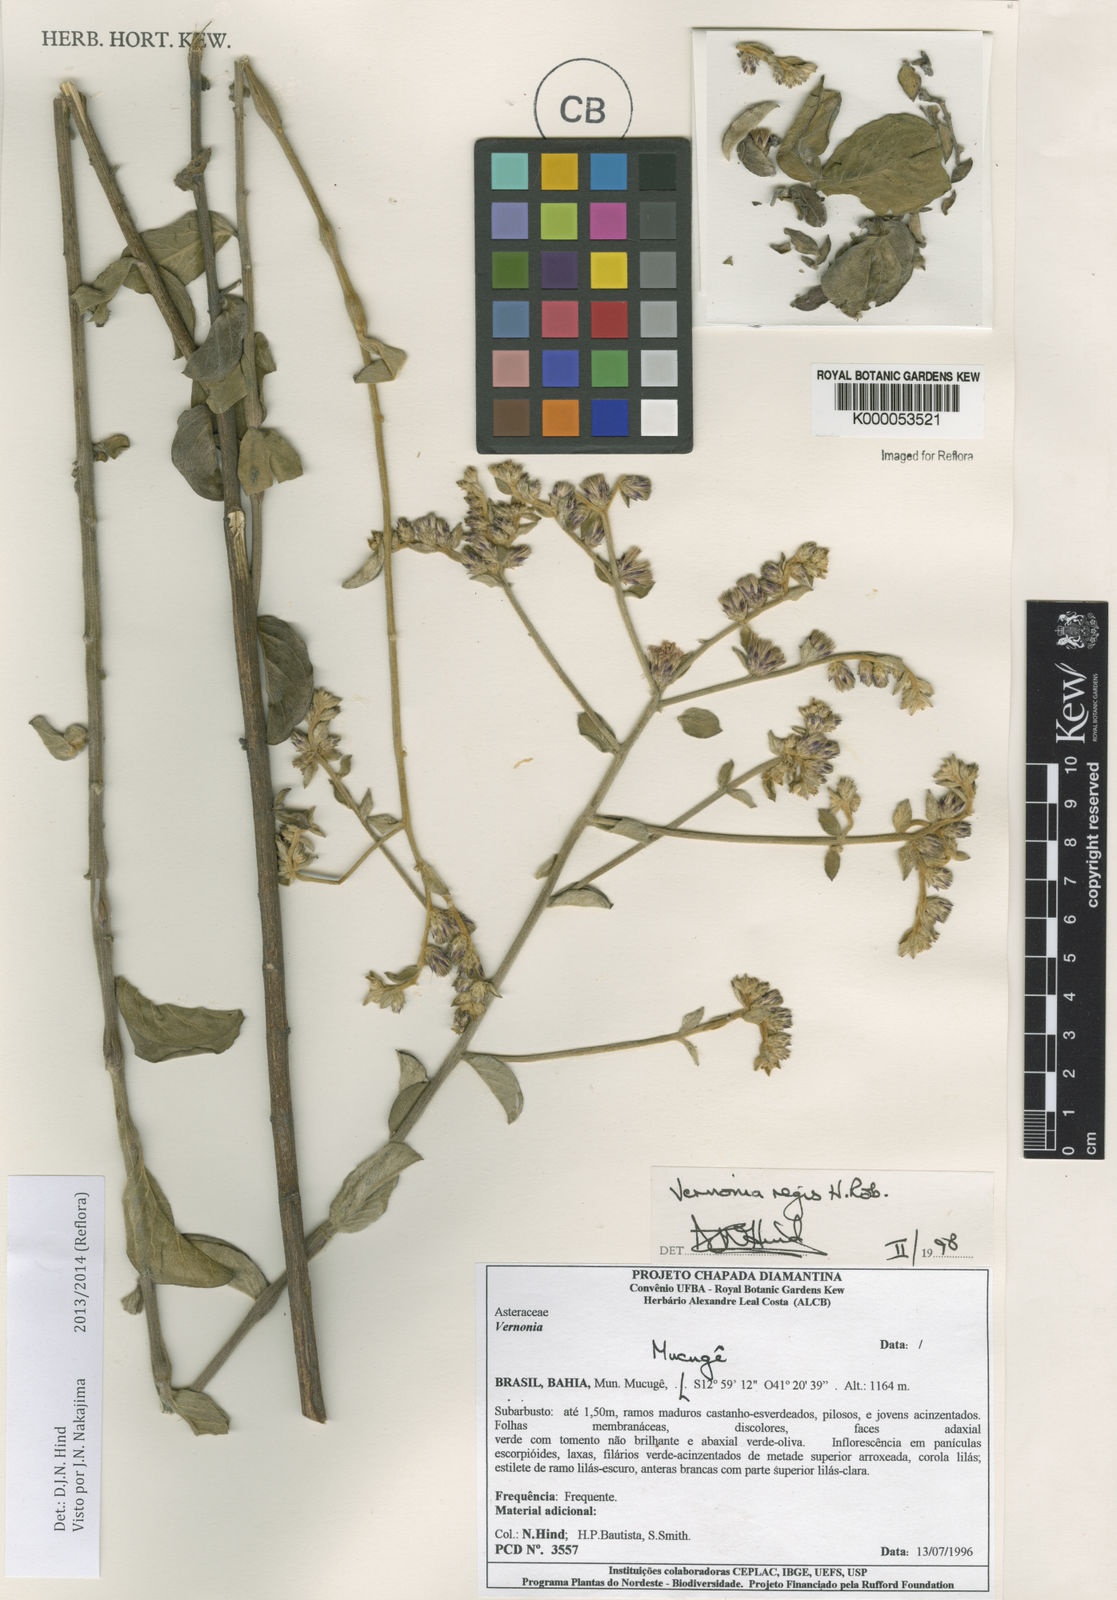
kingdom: Plantae
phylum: Tracheophyta
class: Magnoliopsida
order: Asterales
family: Asteraceae
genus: Lessingianthus
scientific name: Lessingianthus regis
